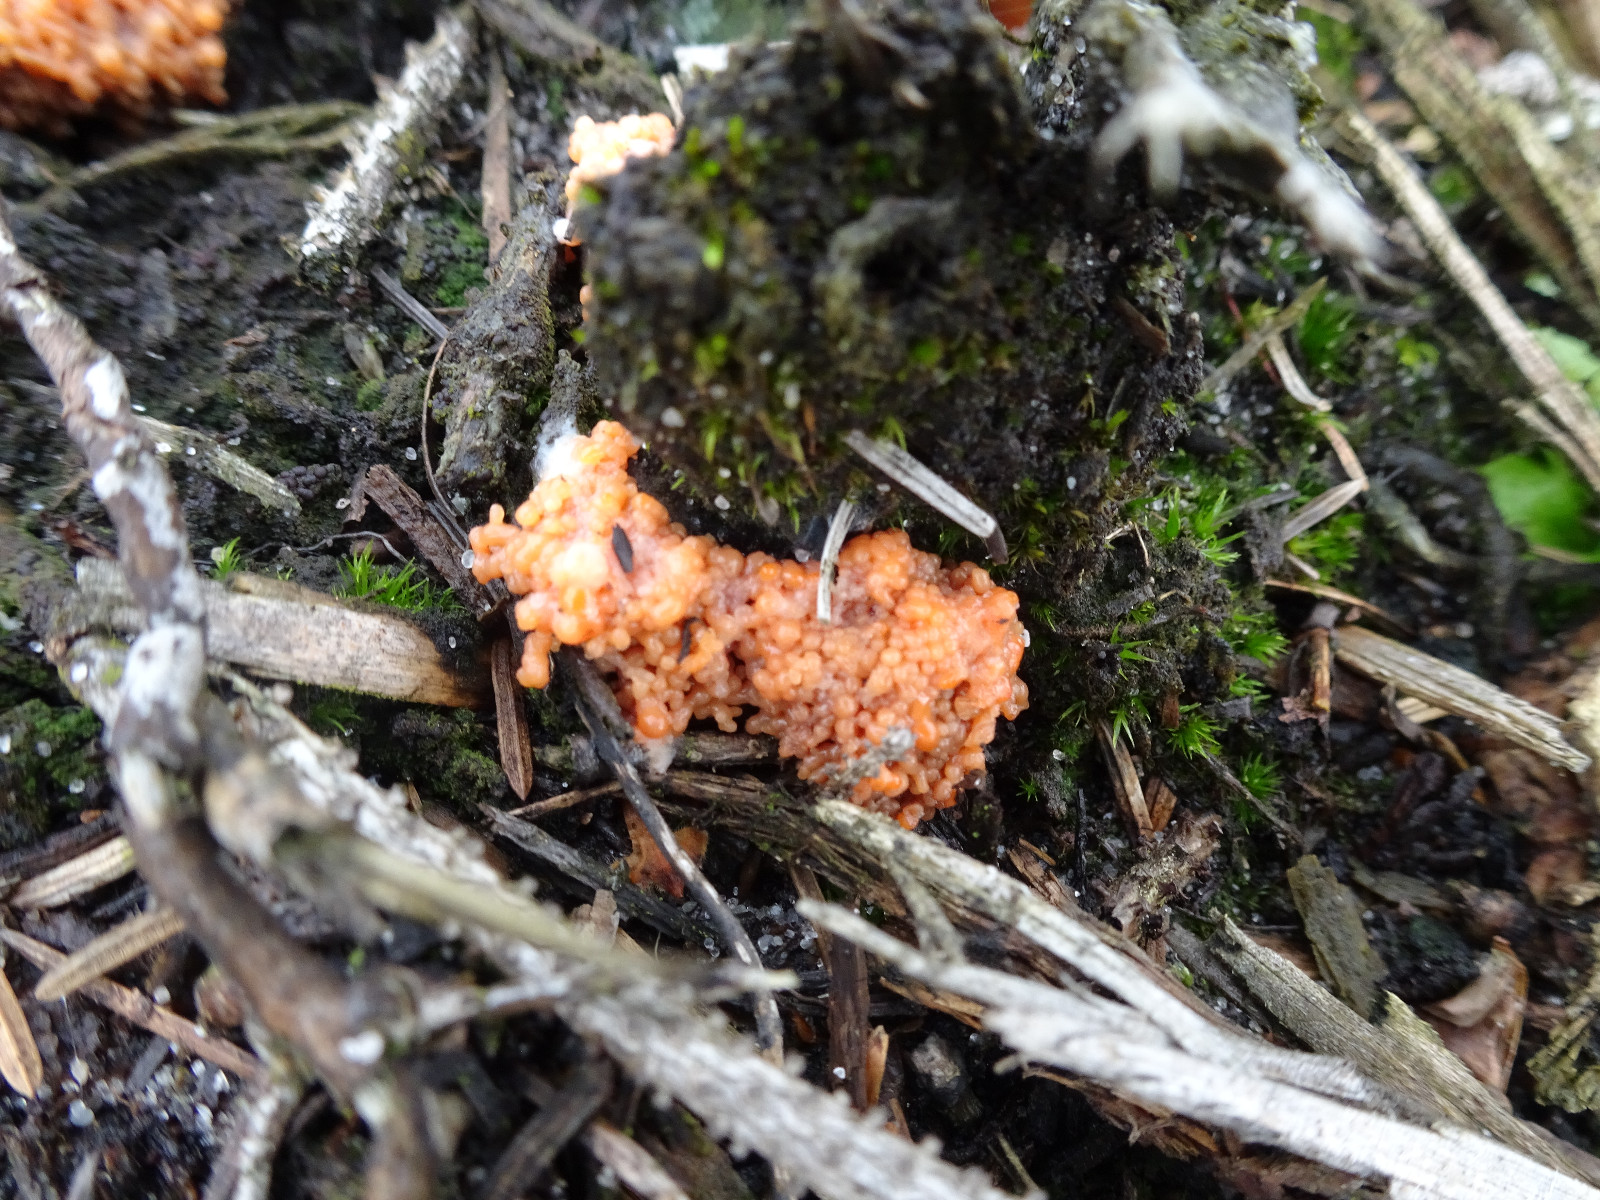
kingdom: Protozoa
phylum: Mycetozoa
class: Myxomycetes
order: Cribrariales
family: Tubiferaceae
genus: Tubifera
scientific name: Tubifera ferruginosa
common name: kanel-støvrør
